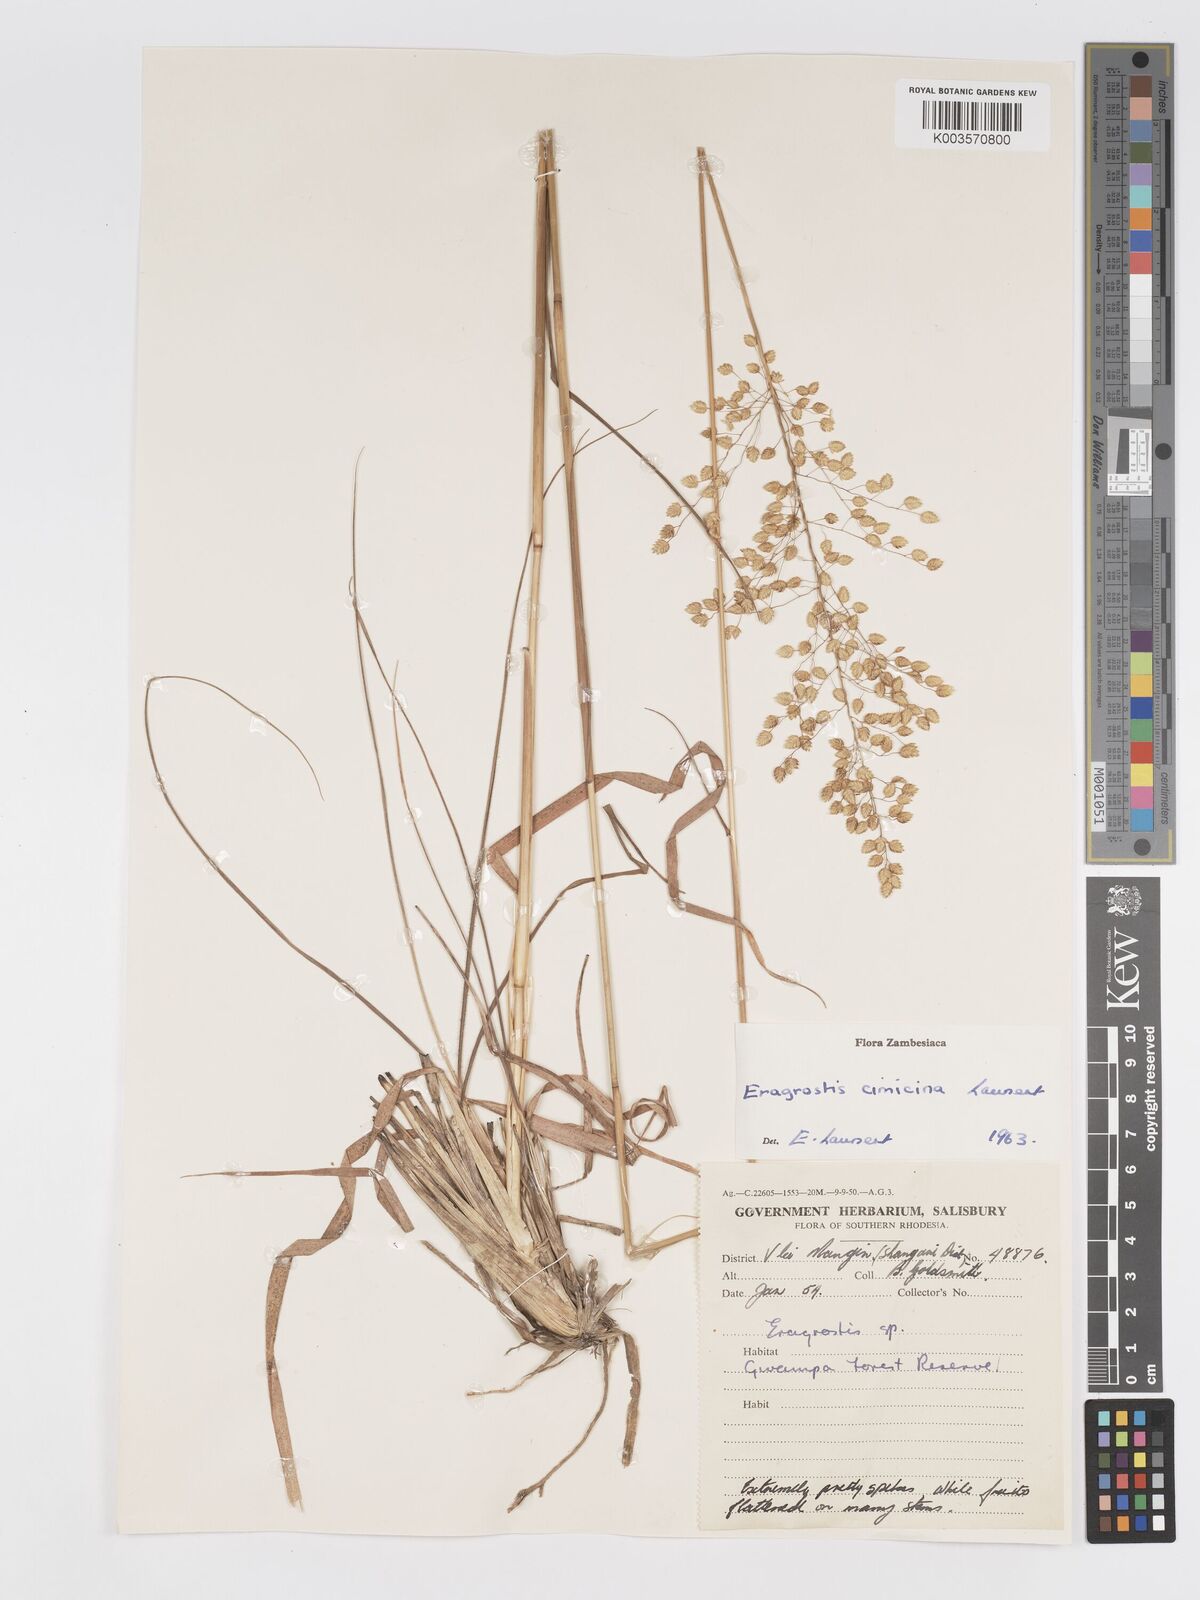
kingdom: Plantae
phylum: Tracheophyta
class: Liliopsida
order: Poales
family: Poaceae
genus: Eragrostis
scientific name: Eragrostis cimicina
